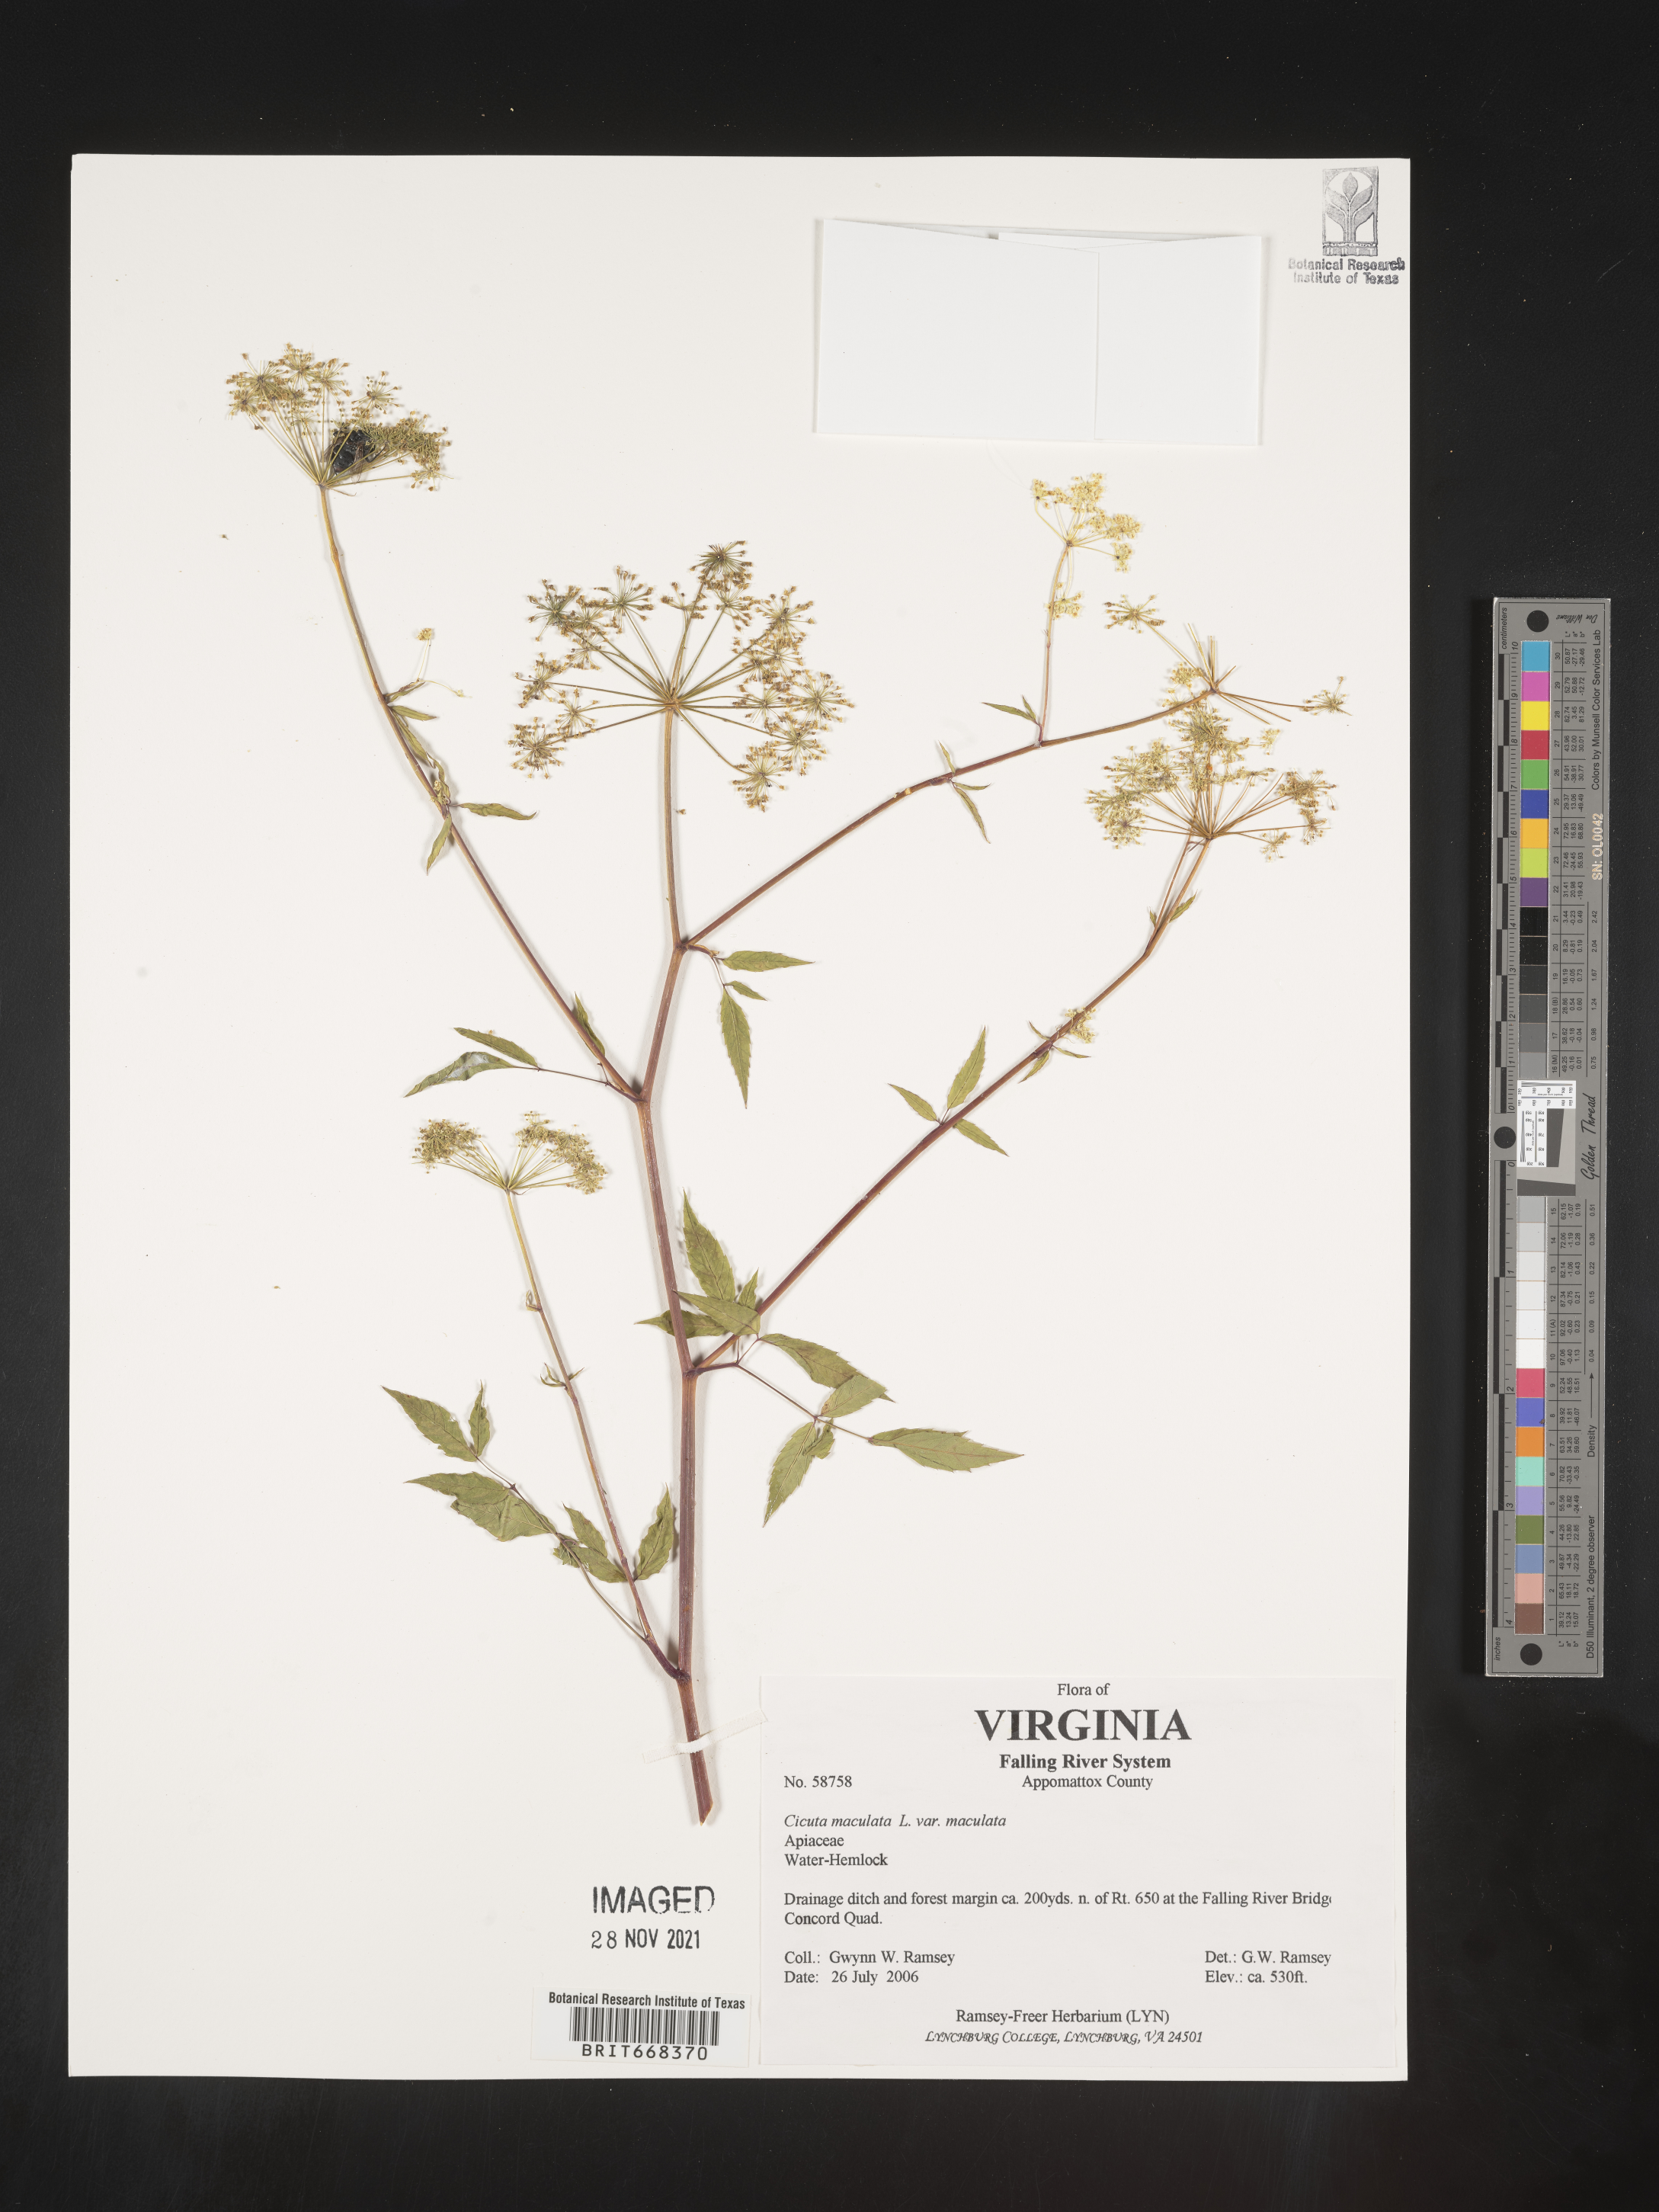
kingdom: Plantae
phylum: Tracheophyta
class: Magnoliopsida
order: Apiales
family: Apiaceae
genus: Cicuta
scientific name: Cicuta maculata
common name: Spotted cowbane
